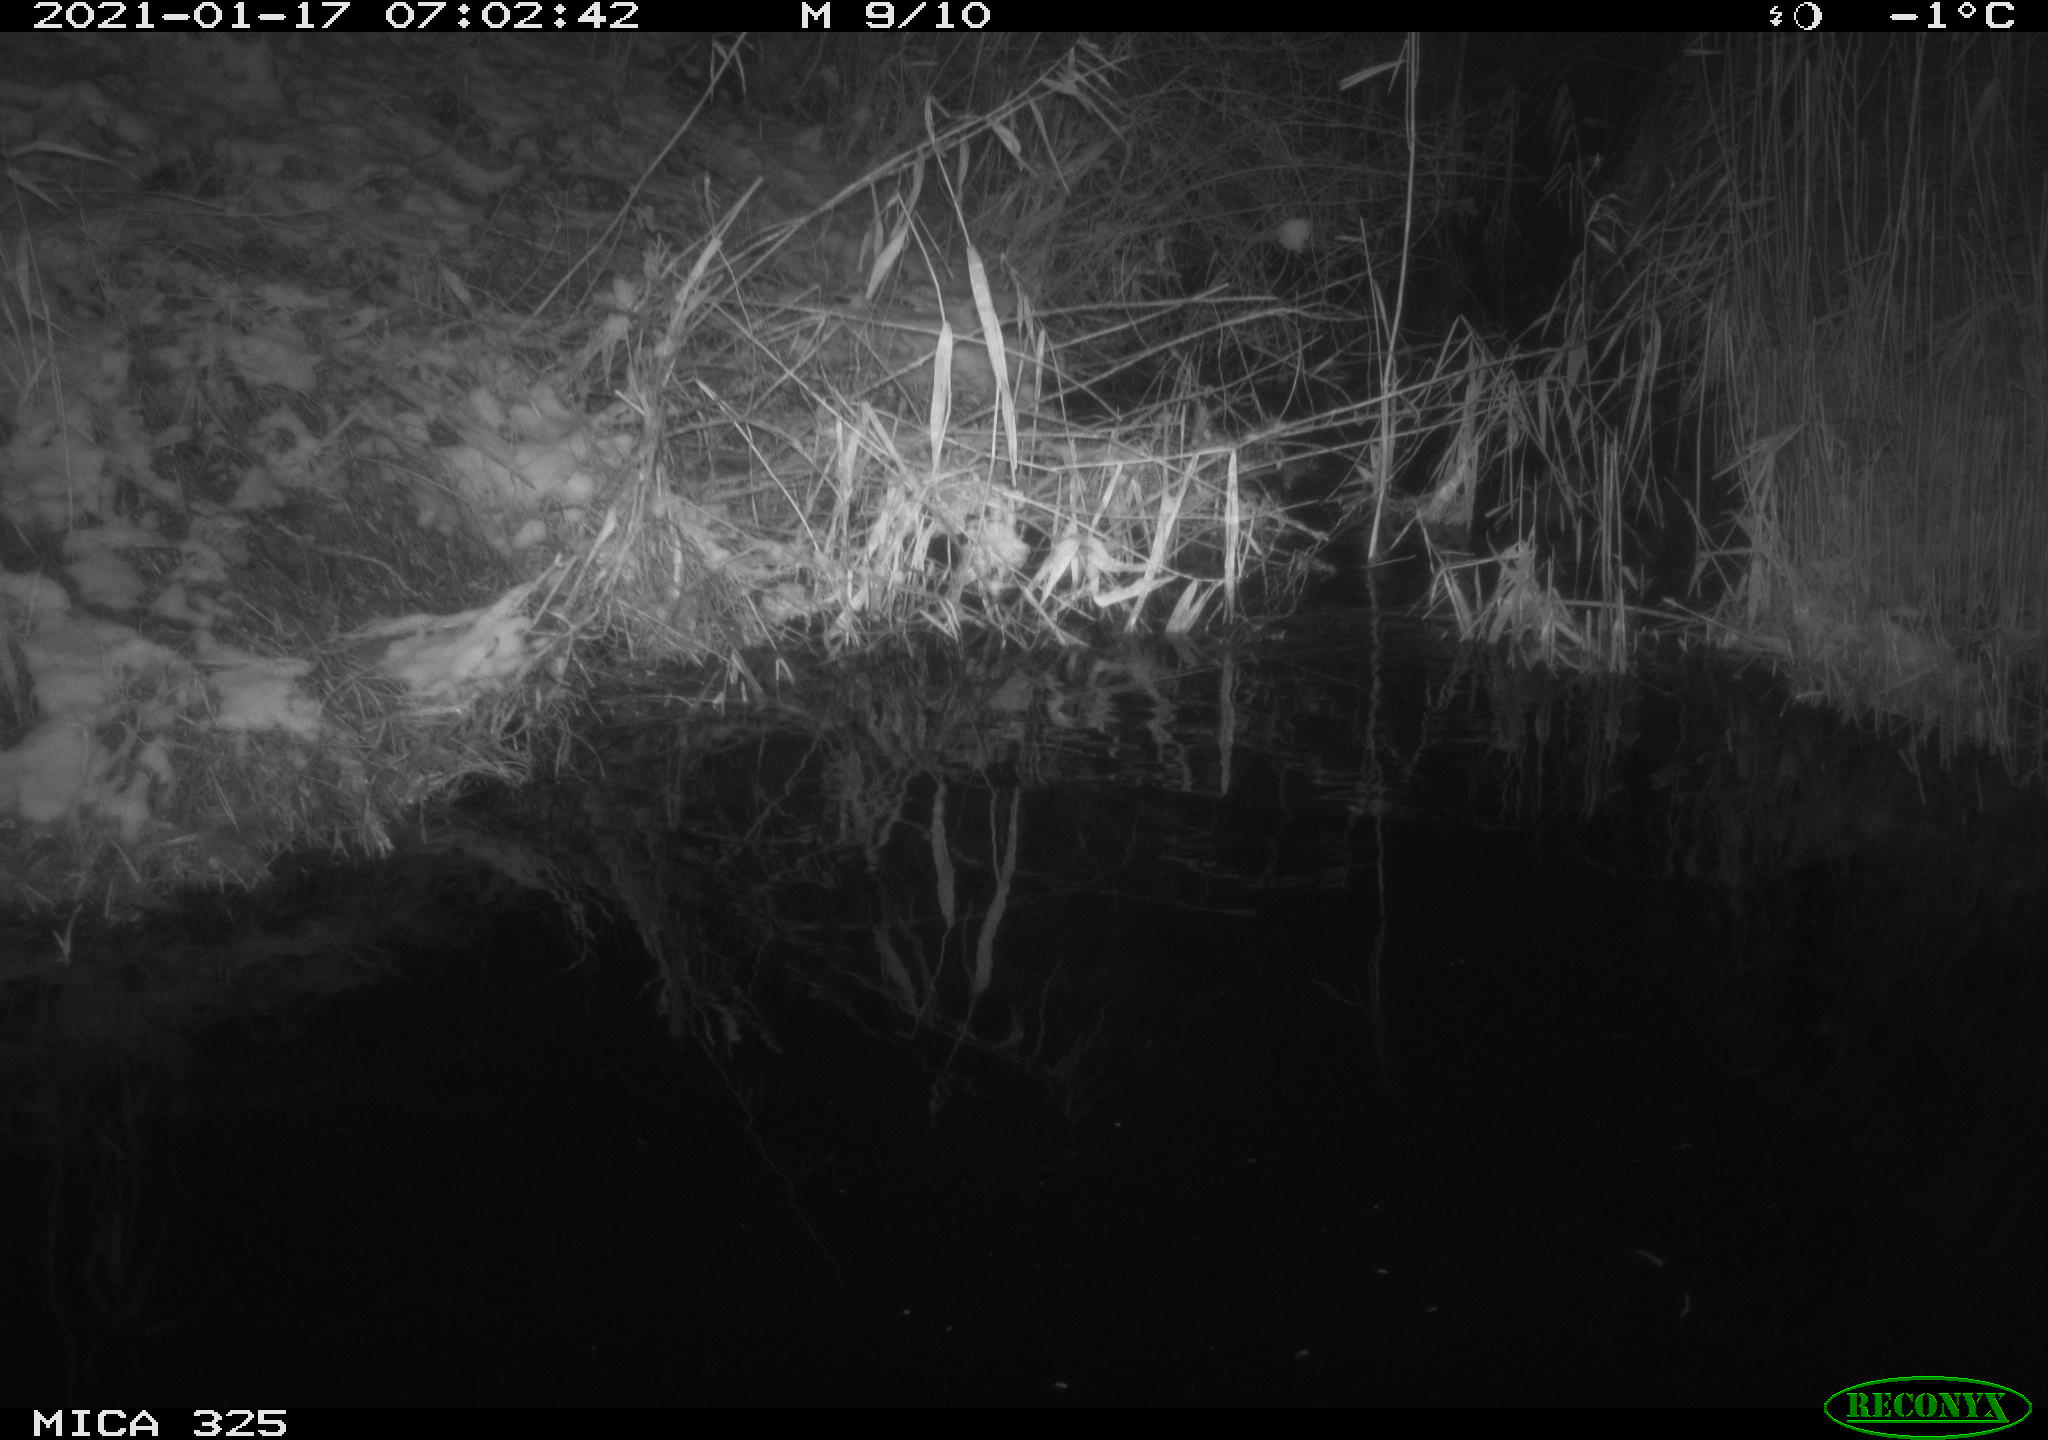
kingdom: Animalia
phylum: Chordata
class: Mammalia
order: Rodentia
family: Myocastoridae
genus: Myocastor
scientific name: Myocastor coypus
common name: Coypu
